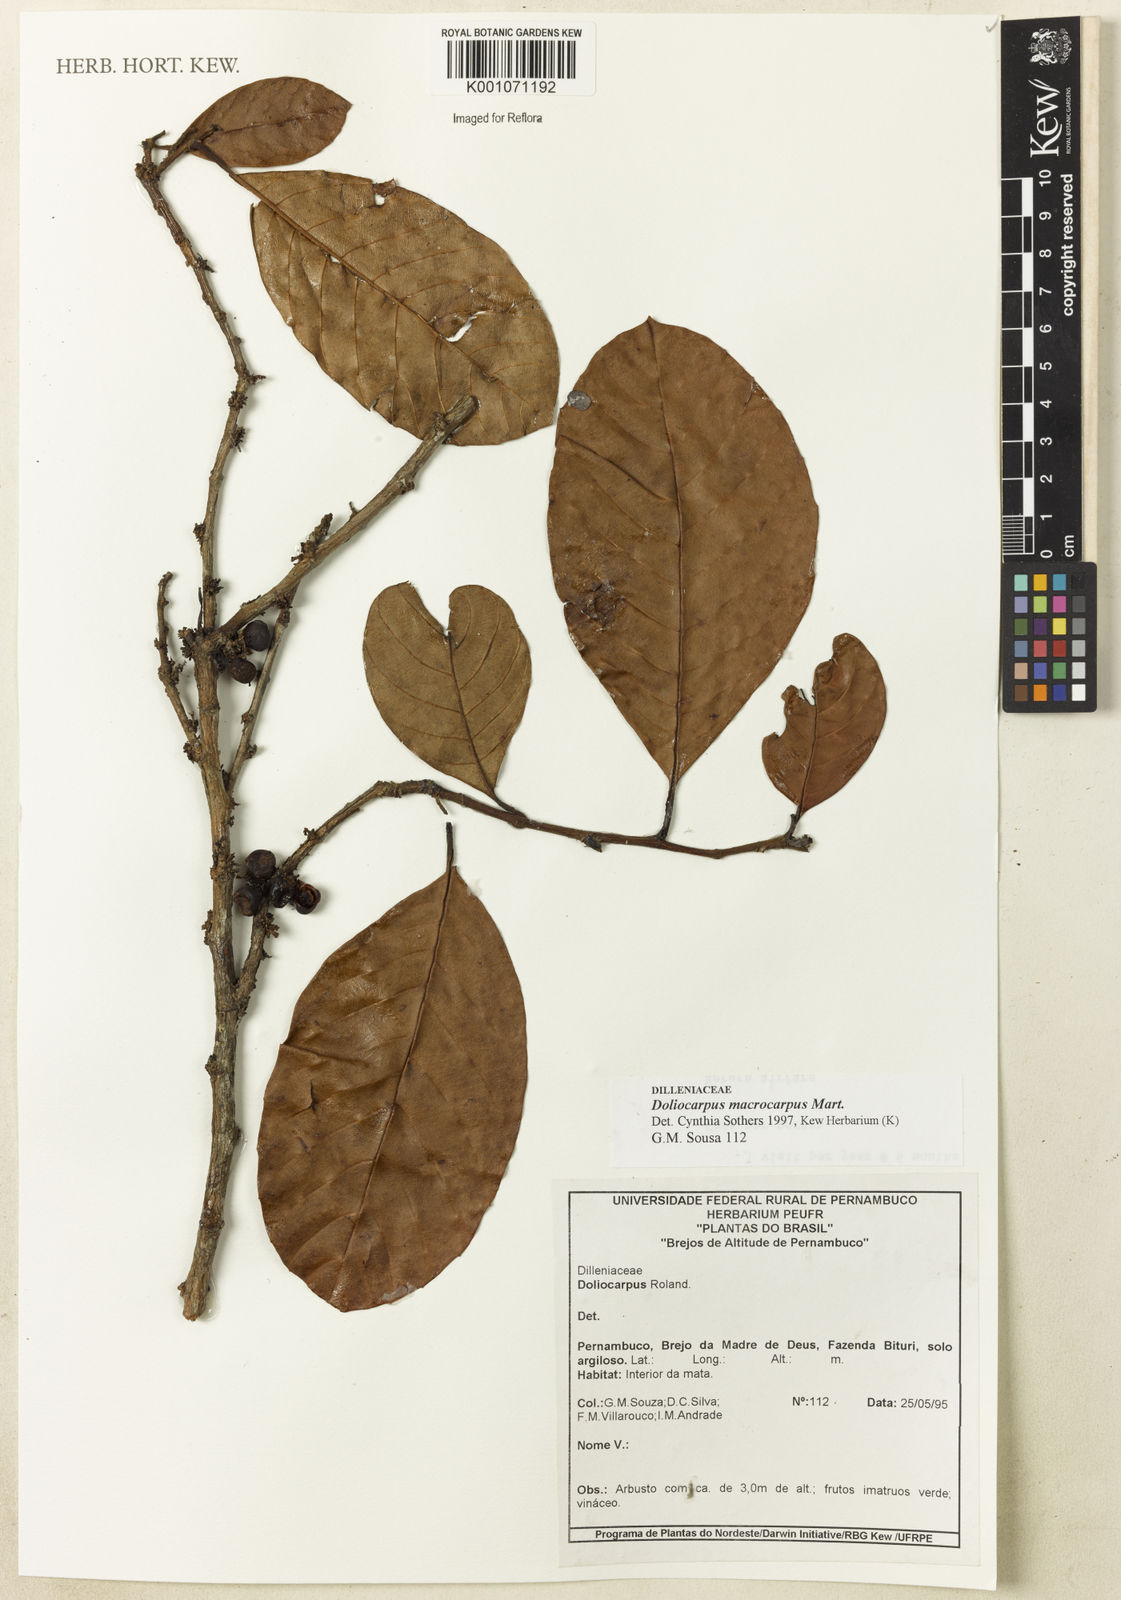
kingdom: Plantae
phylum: Tracheophyta
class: Magnoliopsida
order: Dilleniales
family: Dilleniaceae
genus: Doliocarpus
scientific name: Doliocarpus macrocarpus
